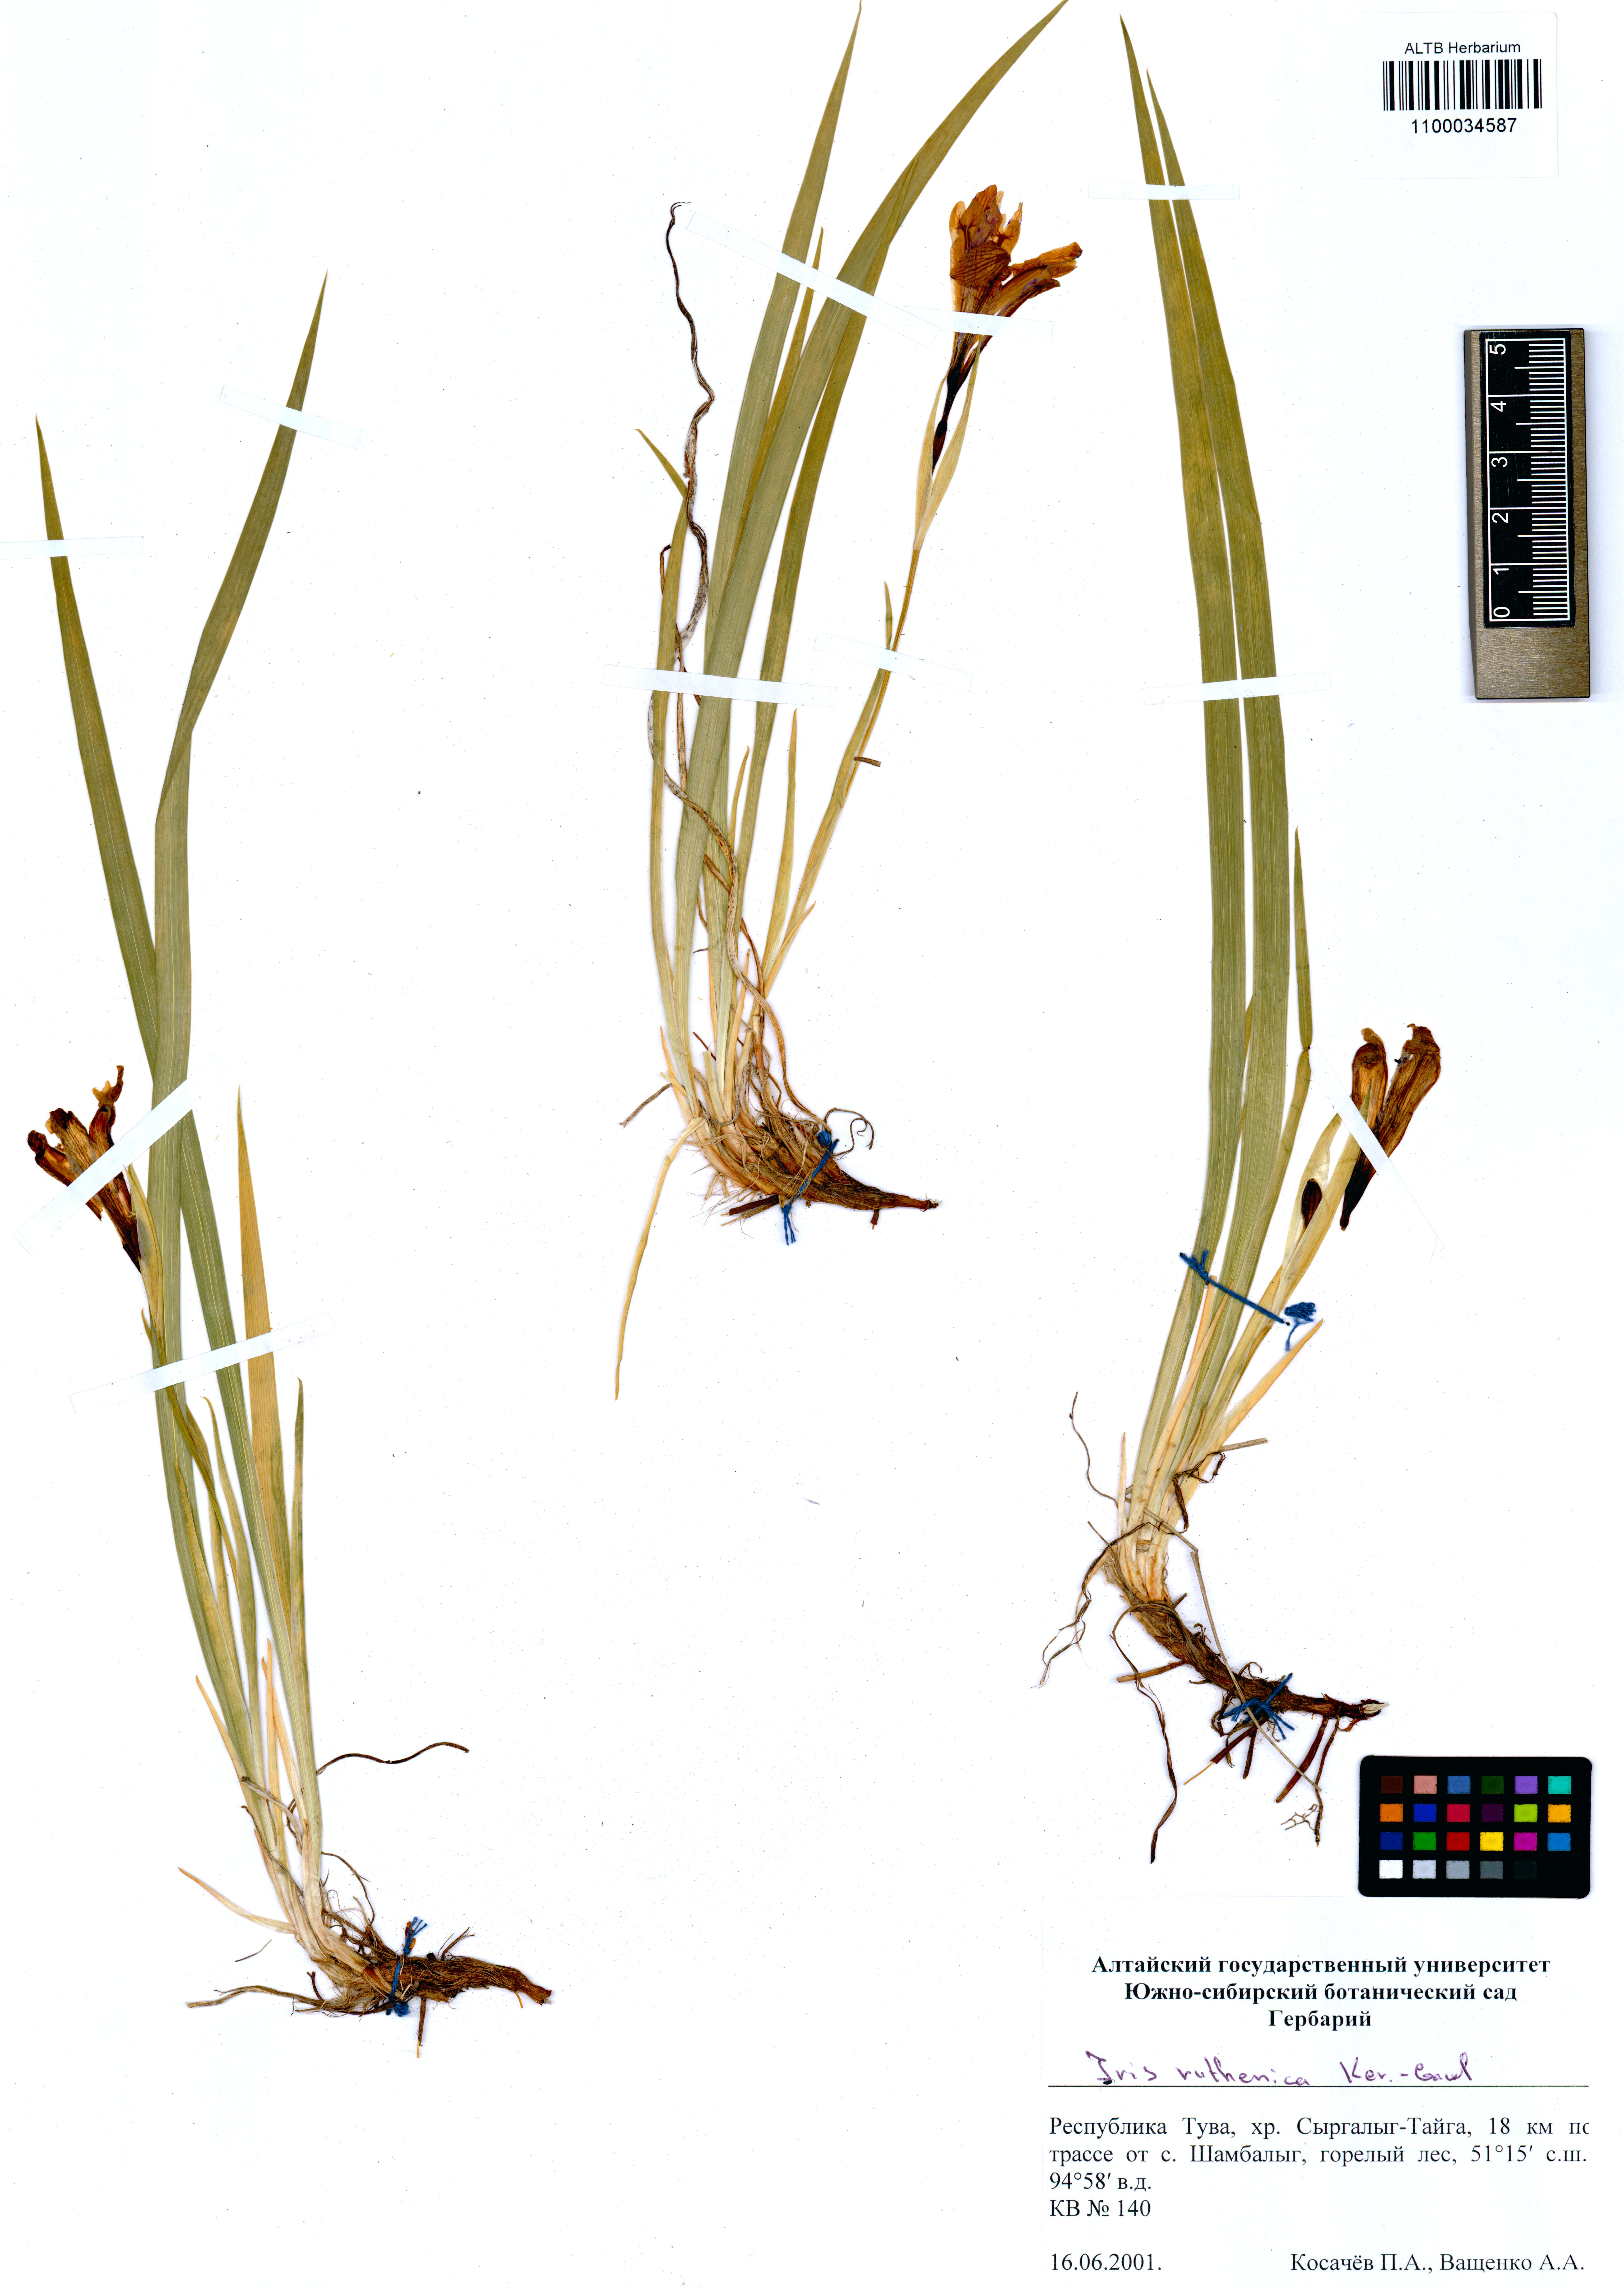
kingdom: Plantae
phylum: Tracheophyta
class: Liliopsida
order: Asparagales
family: Iridaceae
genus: Iris
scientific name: Iris ruthenica
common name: Purple-bract iris
